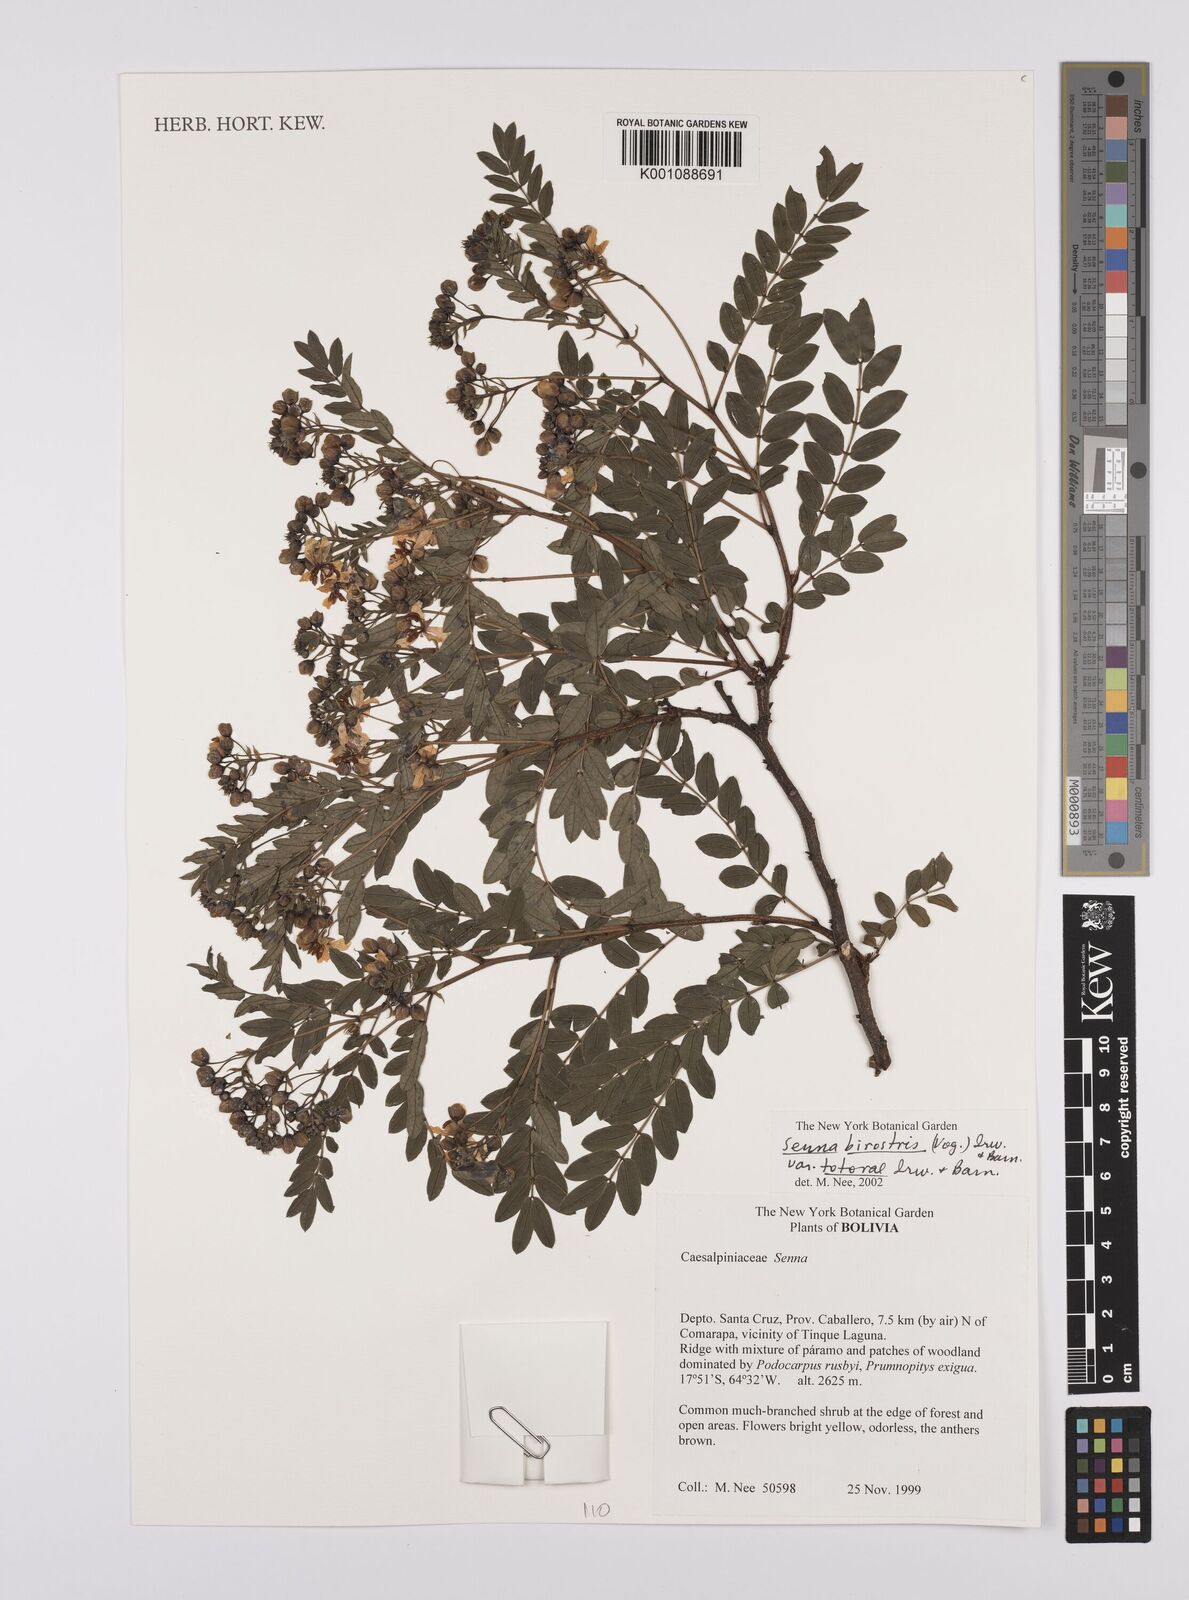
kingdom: Plantae
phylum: Tracheophyta
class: Magnoliopsida
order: Fabales
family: Fabaceae
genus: Senna
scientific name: Senna birostris
